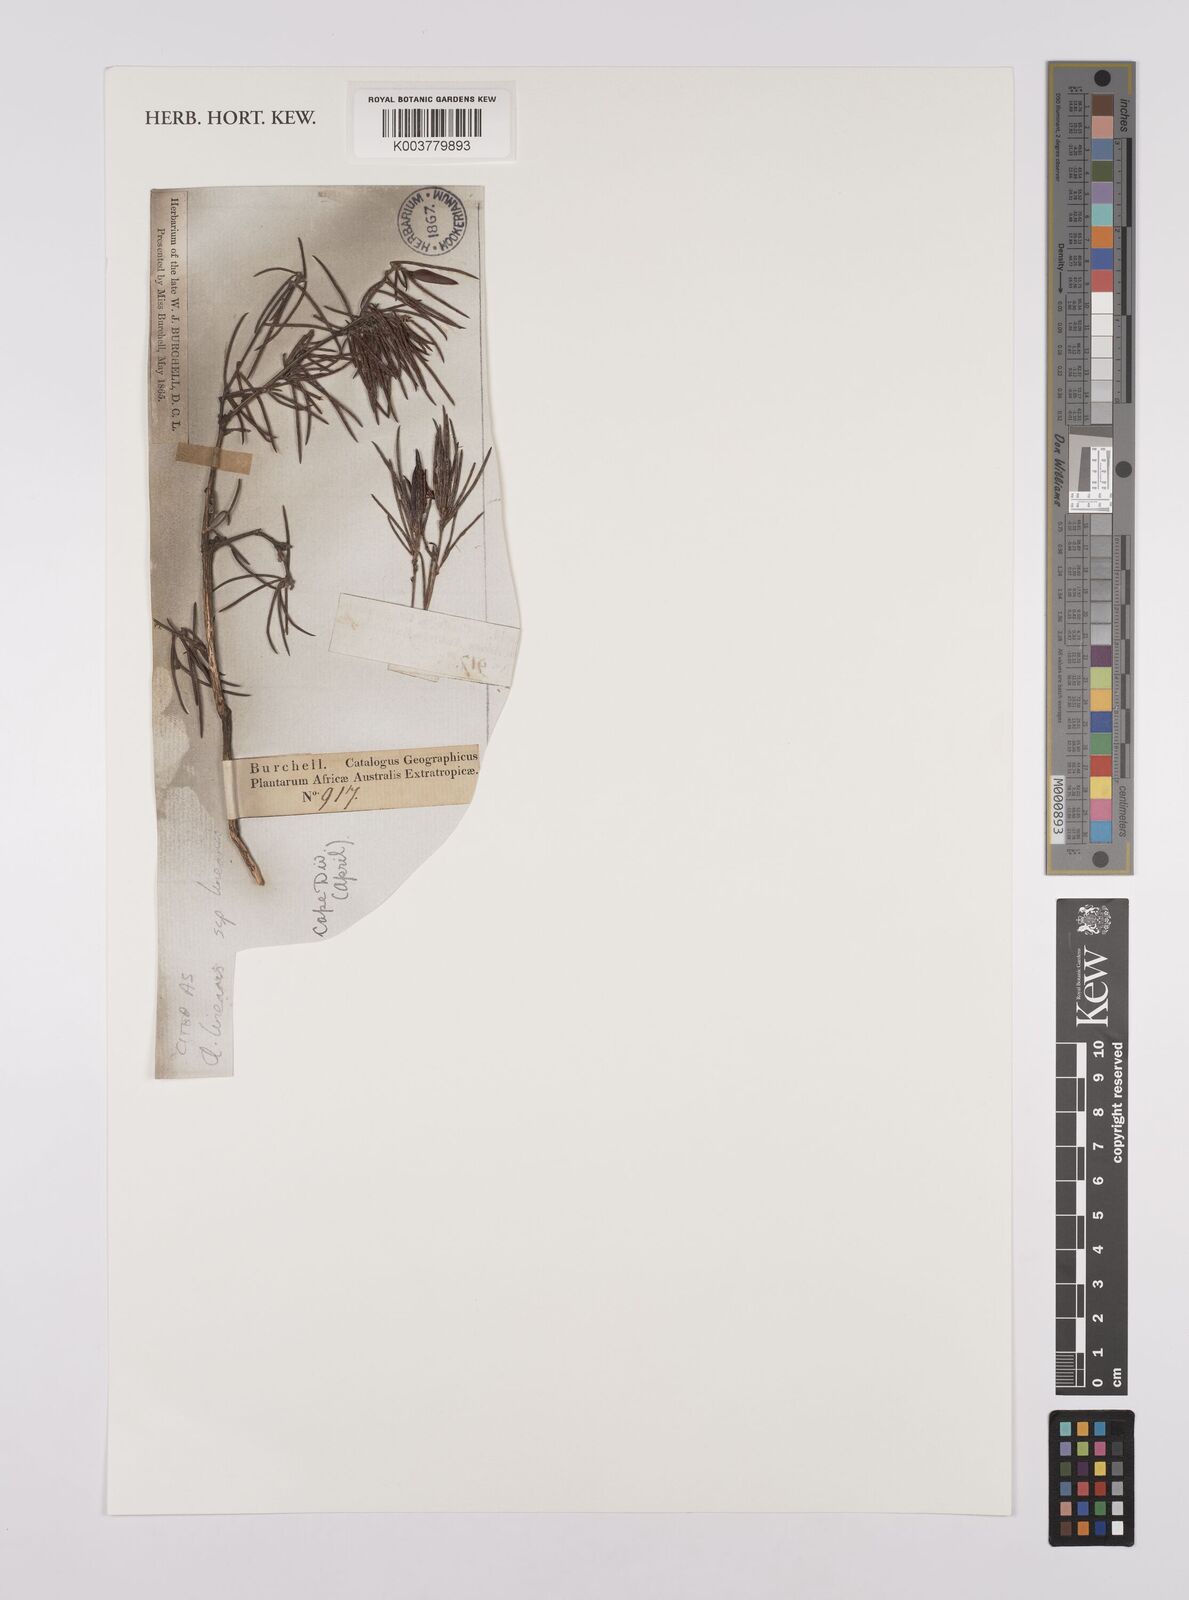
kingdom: Plantae
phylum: Tracheophyta
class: Magnoliopsida
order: Fabales
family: Fabaceae
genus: Aspalathus
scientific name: Aspalathus linearis
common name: Rooibos-tea
